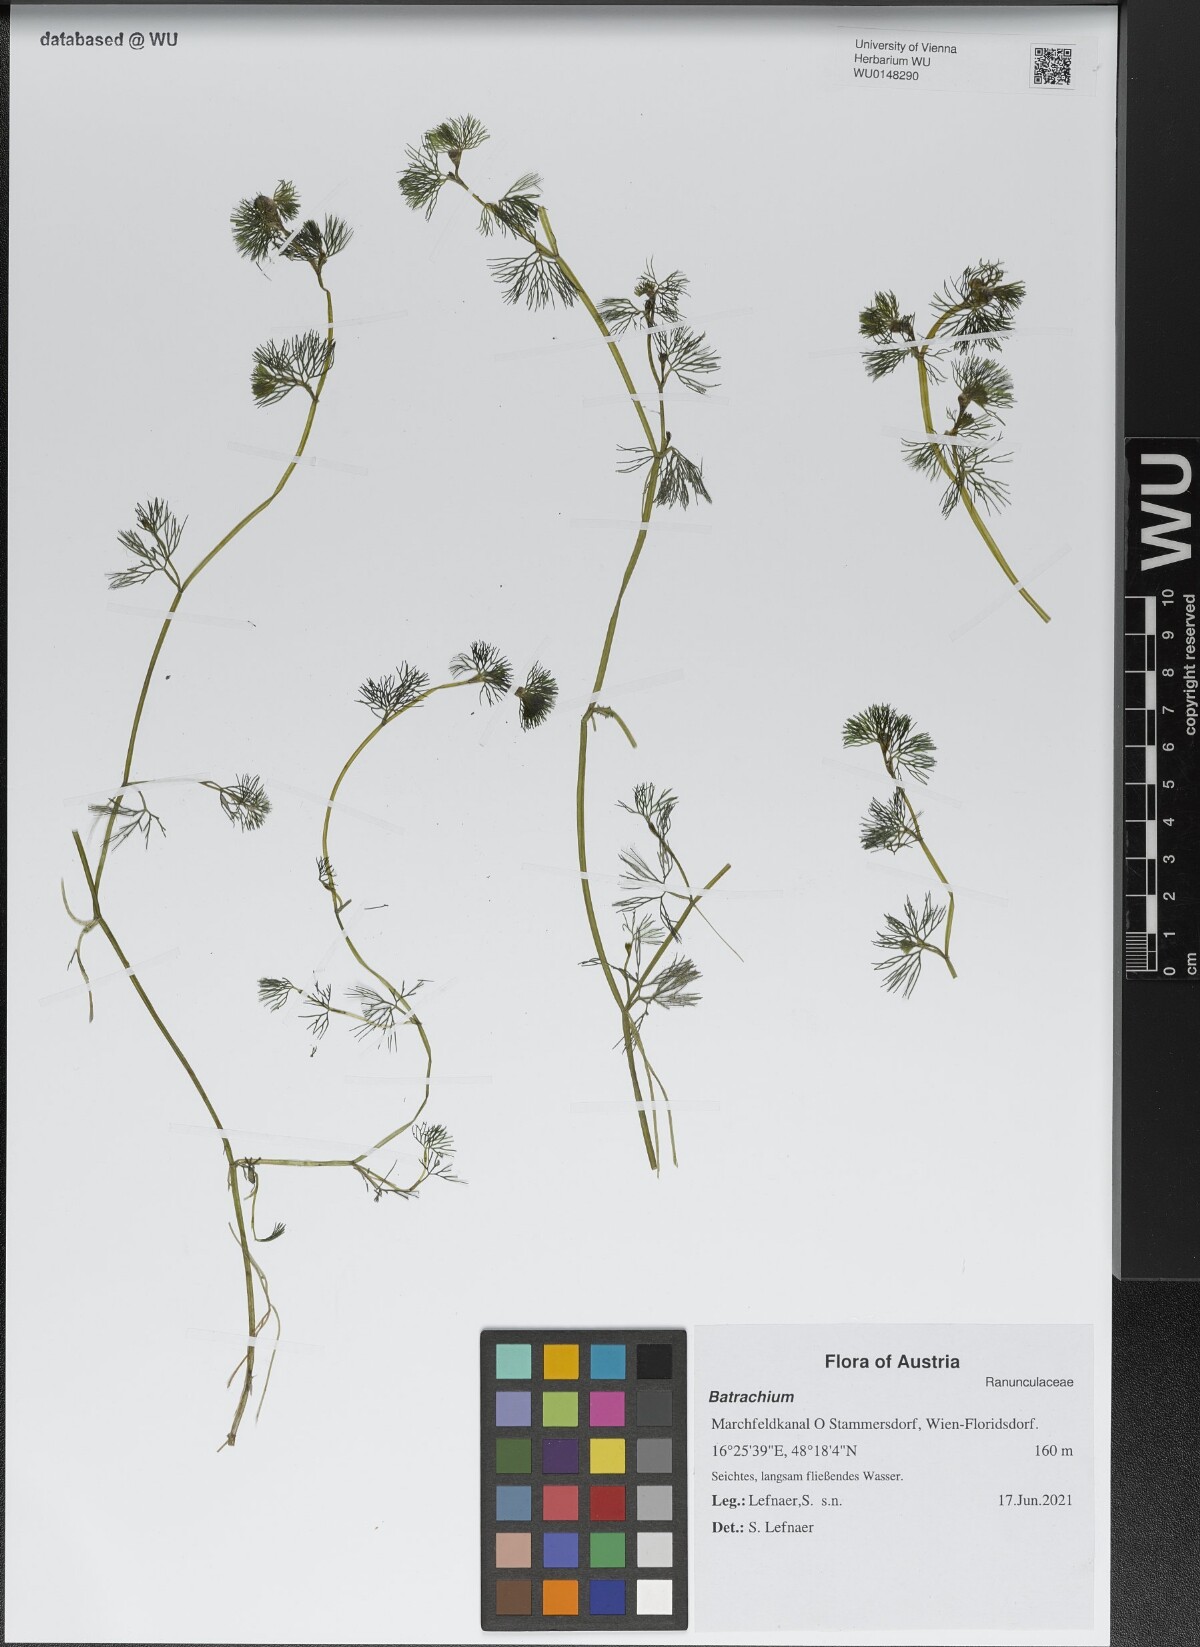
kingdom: Plantae
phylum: Tracheophyta
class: Magnoliopsida
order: Ranunculales
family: Ranunculaceae
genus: Ranunculus
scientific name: Ranunculus
